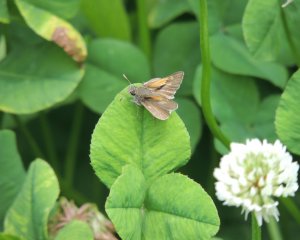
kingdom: Animalia
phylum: Arthropoda
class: Insecta
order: Lepidoptera
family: Hesperiidae
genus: Polites
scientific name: Polites themistocles
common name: Tawny-edged Skipper
